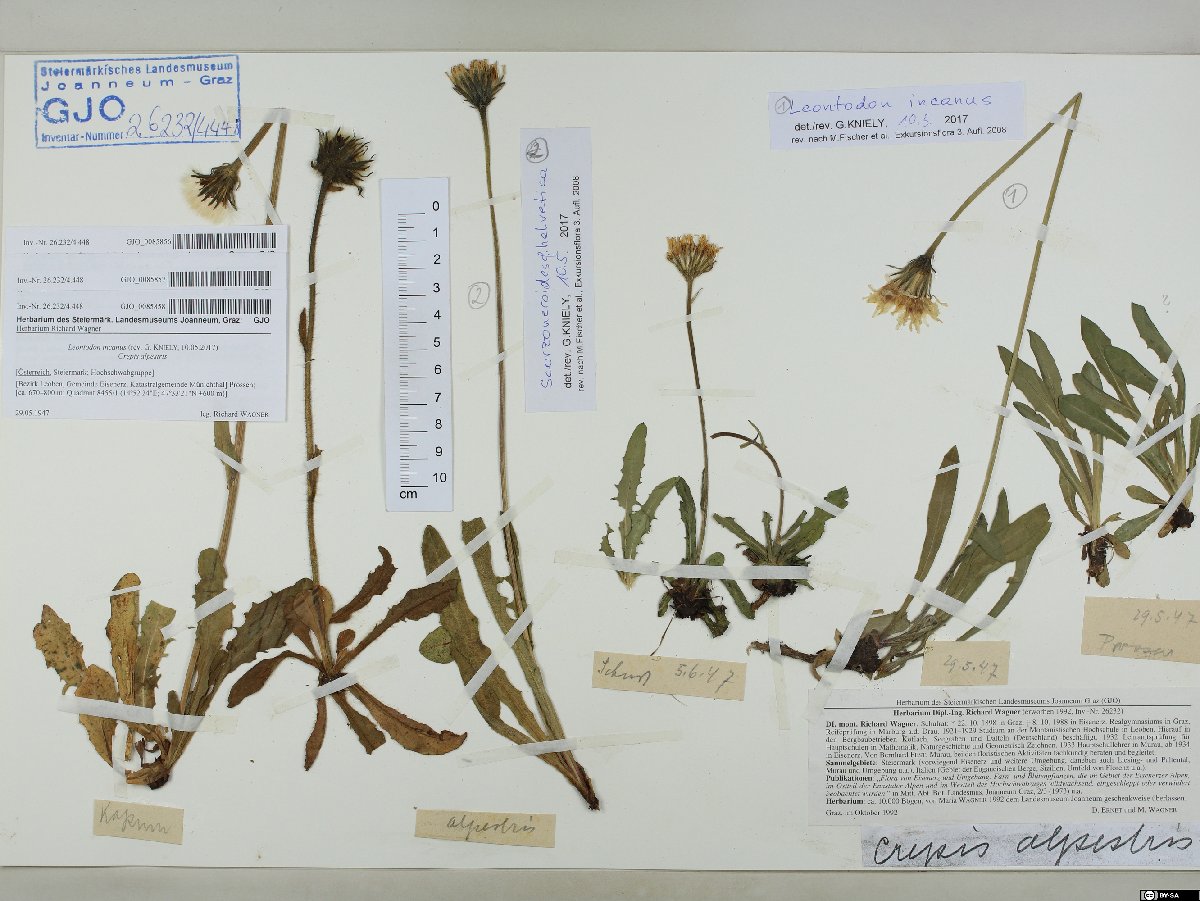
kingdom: Plantae
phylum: Tracheophyta
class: Magnoliopsida
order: Asterales
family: Asteraceae
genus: Leontodon
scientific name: Leontodon incanus
